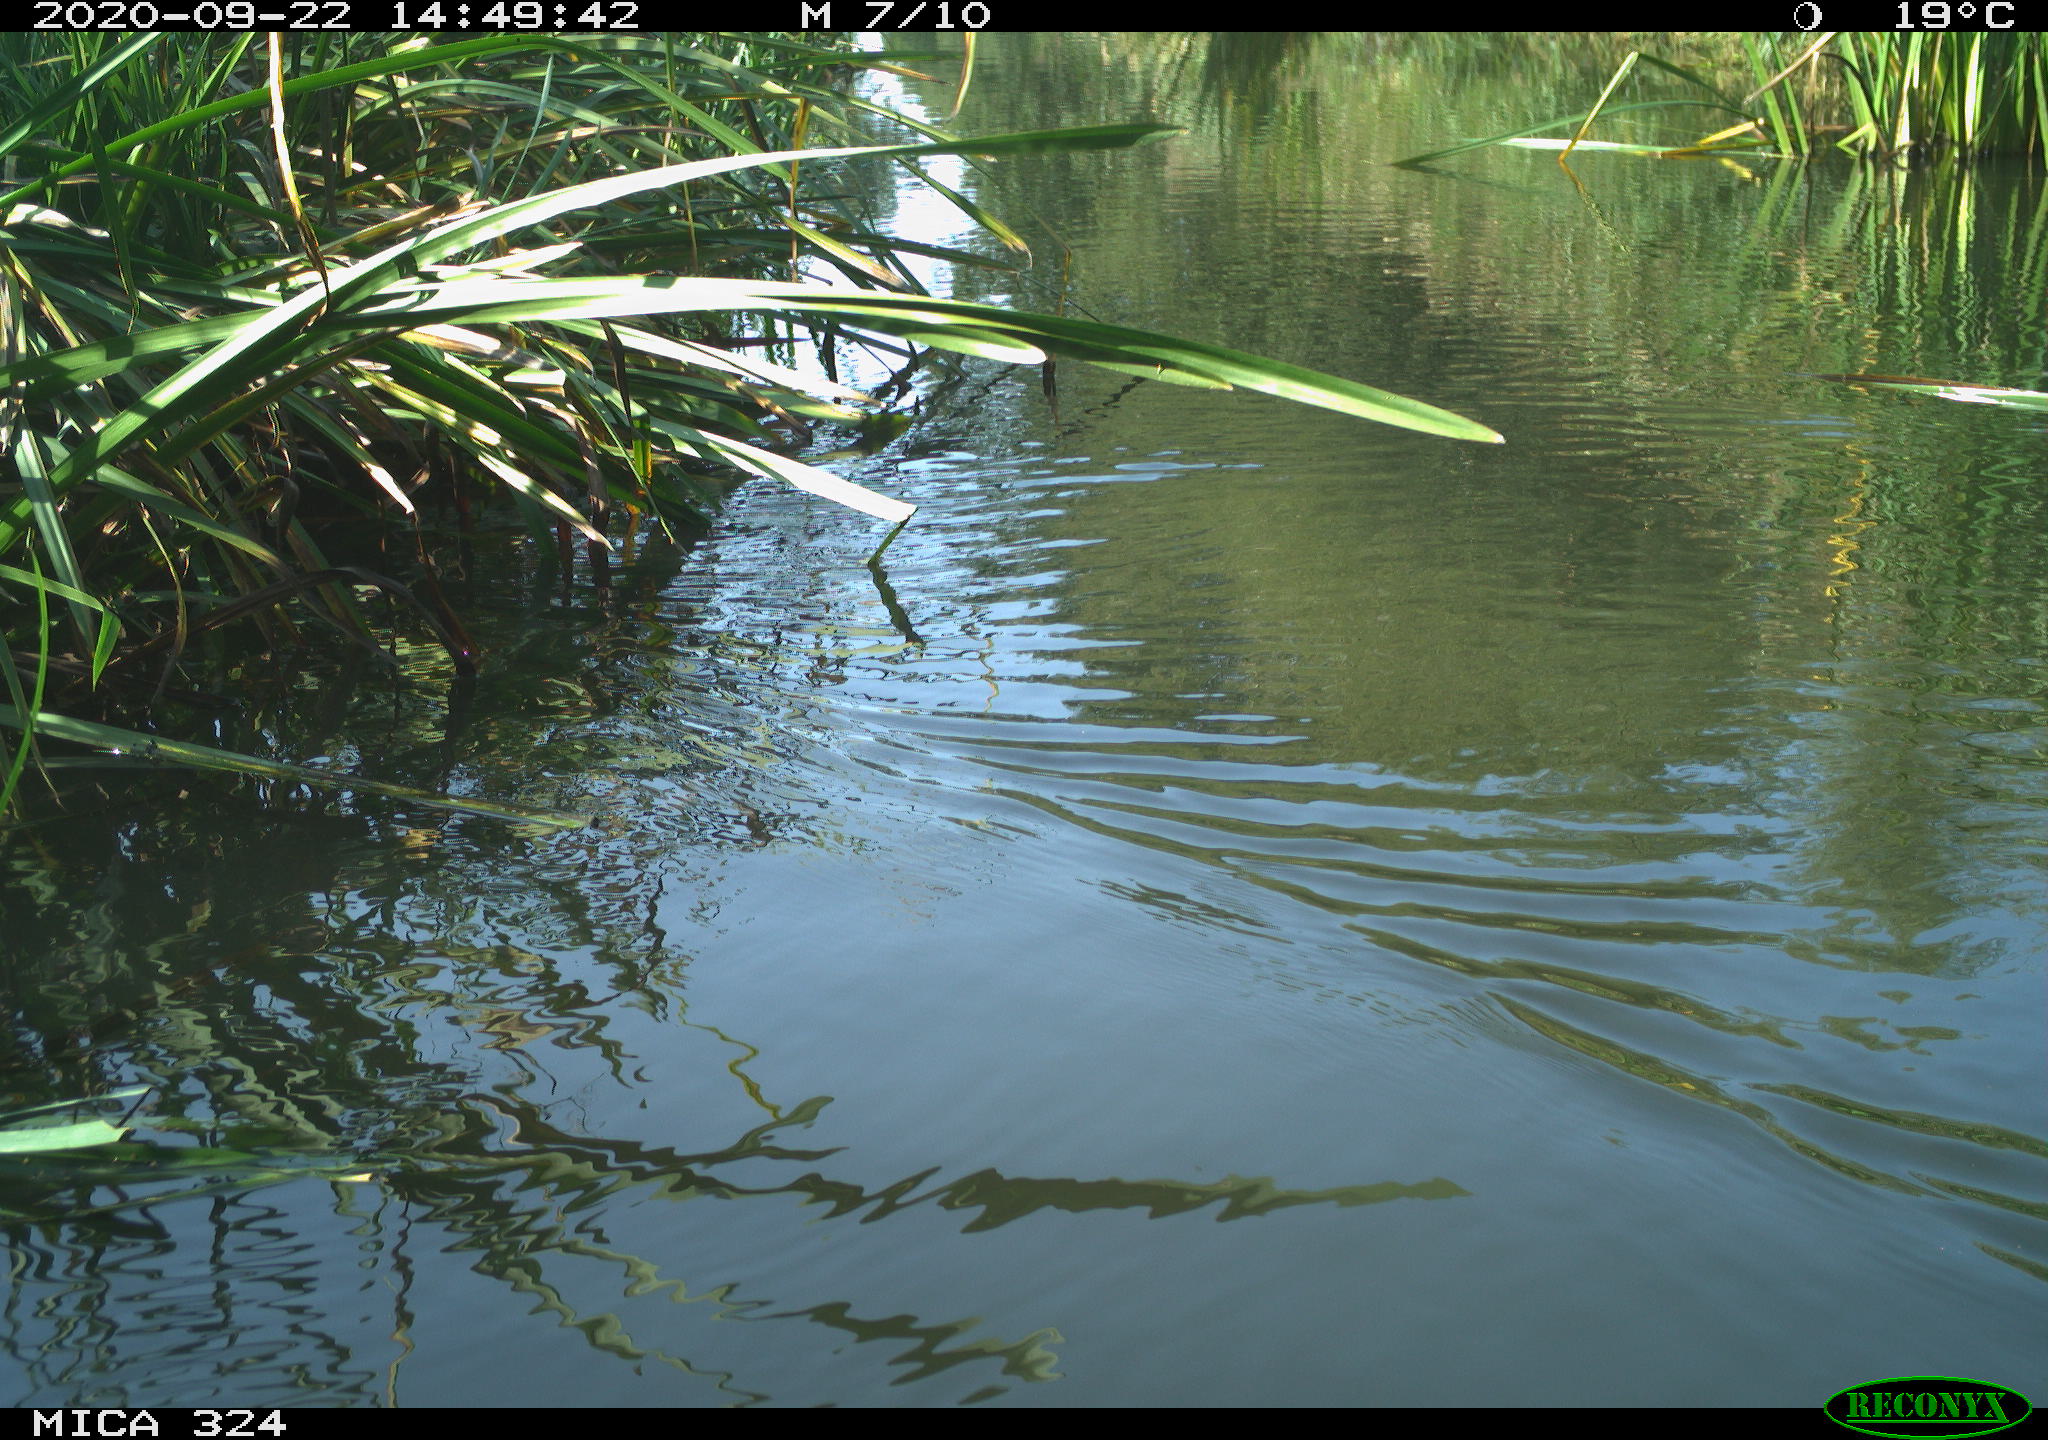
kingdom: Animalia
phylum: Chordata
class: Aves
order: Gruiformes
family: Rallidae
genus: Gallinula
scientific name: Gallinula chloropus
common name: Common moorhen
